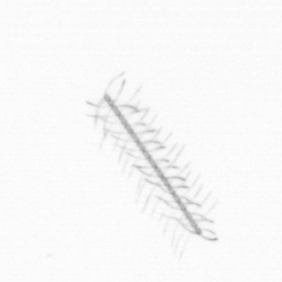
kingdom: Chromista
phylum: Ochrophyta
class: Bacillariophyceae
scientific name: Bacillariophyceae
